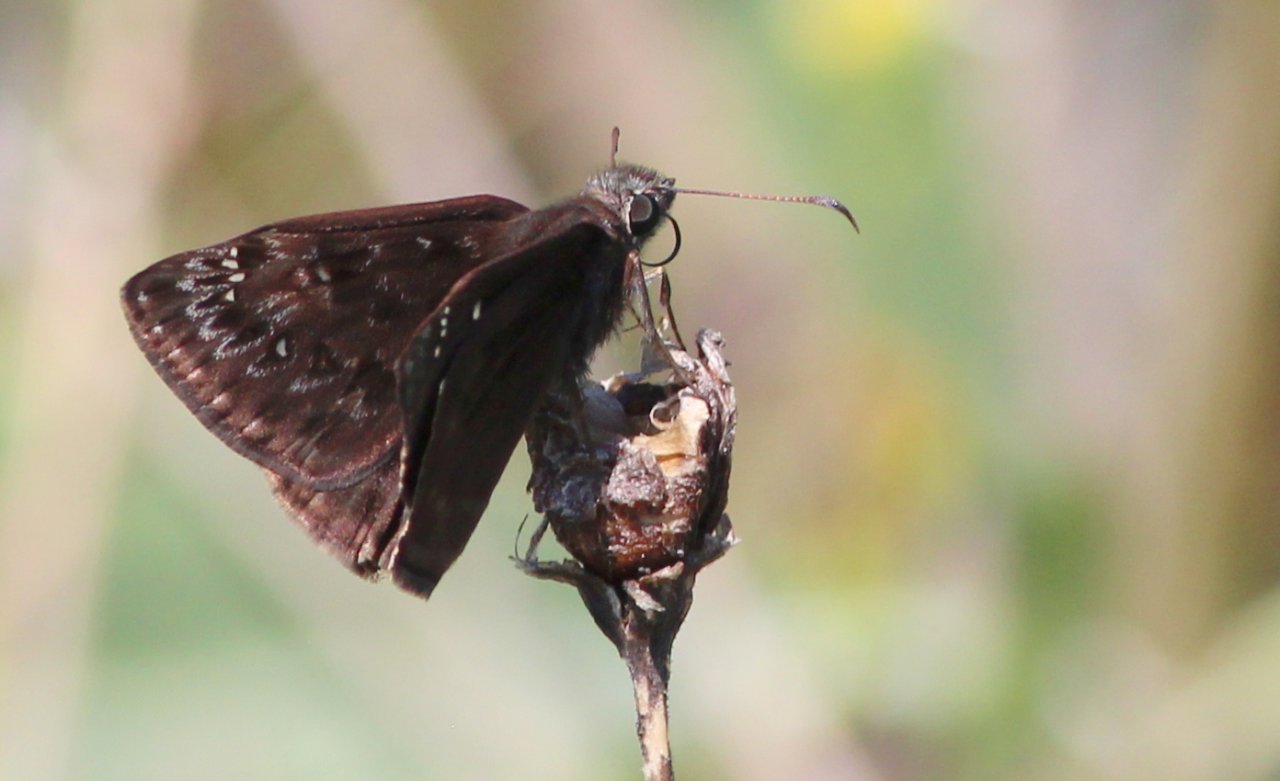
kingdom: Animalia
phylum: Arthropoda
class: Insecta
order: Lepidoptera
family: Hesperiidae
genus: Gesta
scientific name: Gesta
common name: Juvenal's Duskywing
